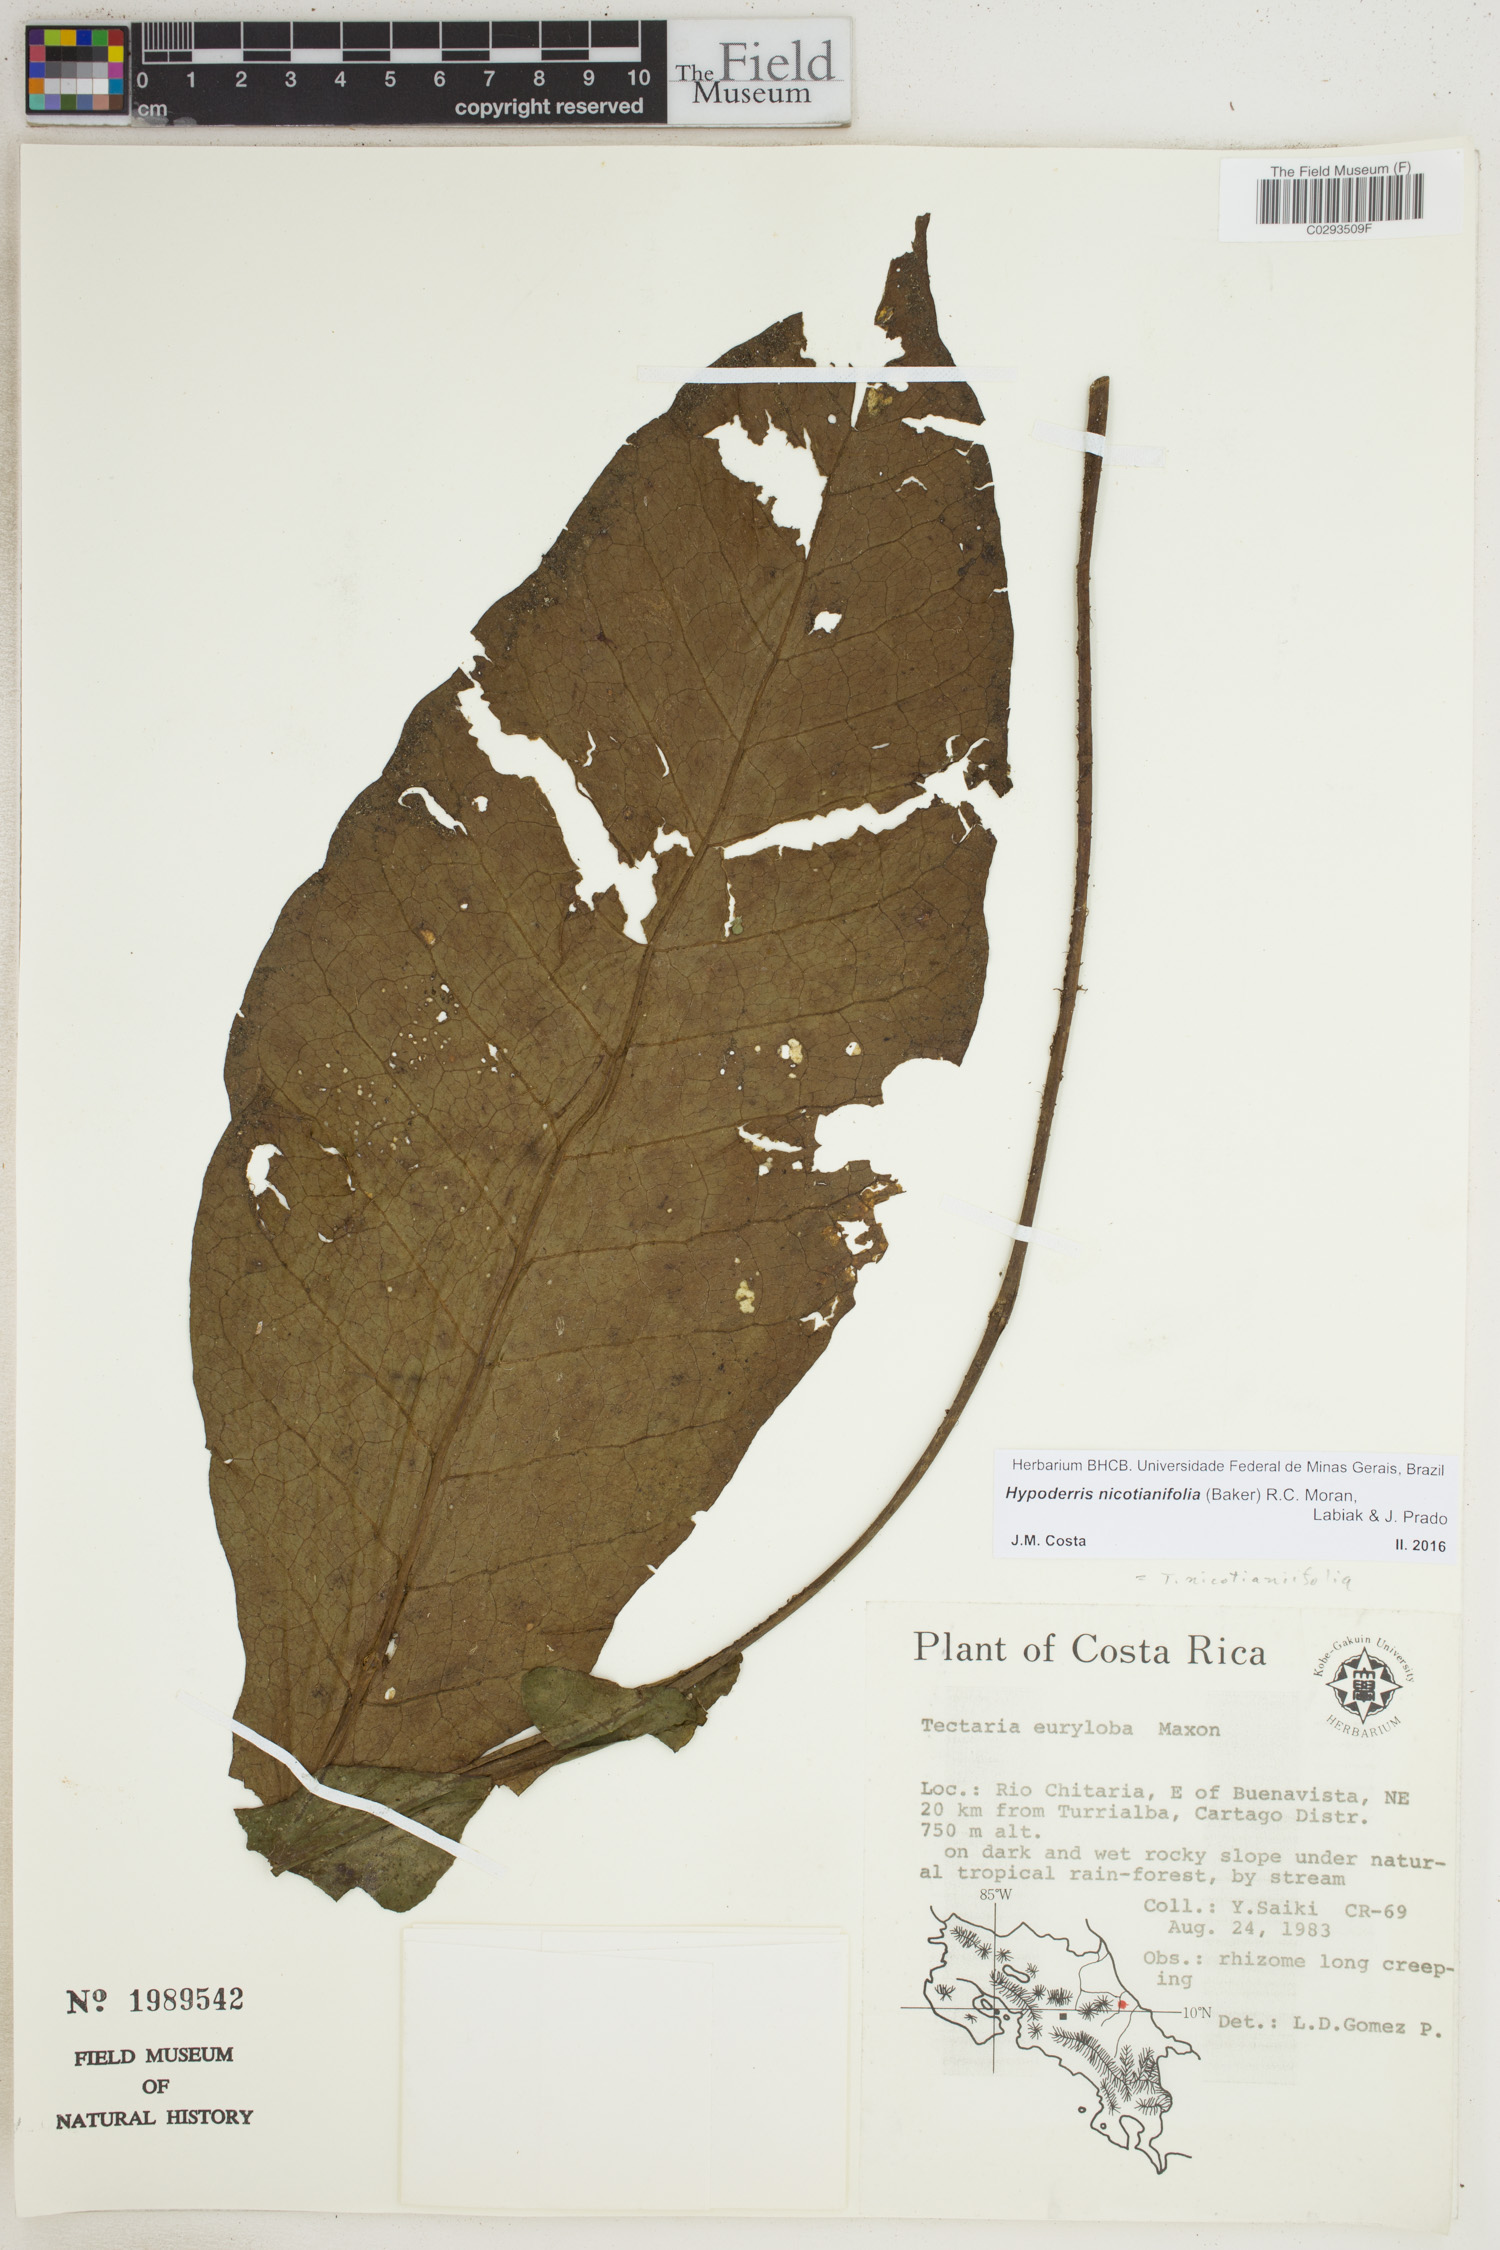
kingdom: Plantae
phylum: Tracheophyta
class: Polypodiopsida
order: Polypodiales
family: Tectariaceae
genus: Hypoderris
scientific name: Hypoderris nicotianifolia
